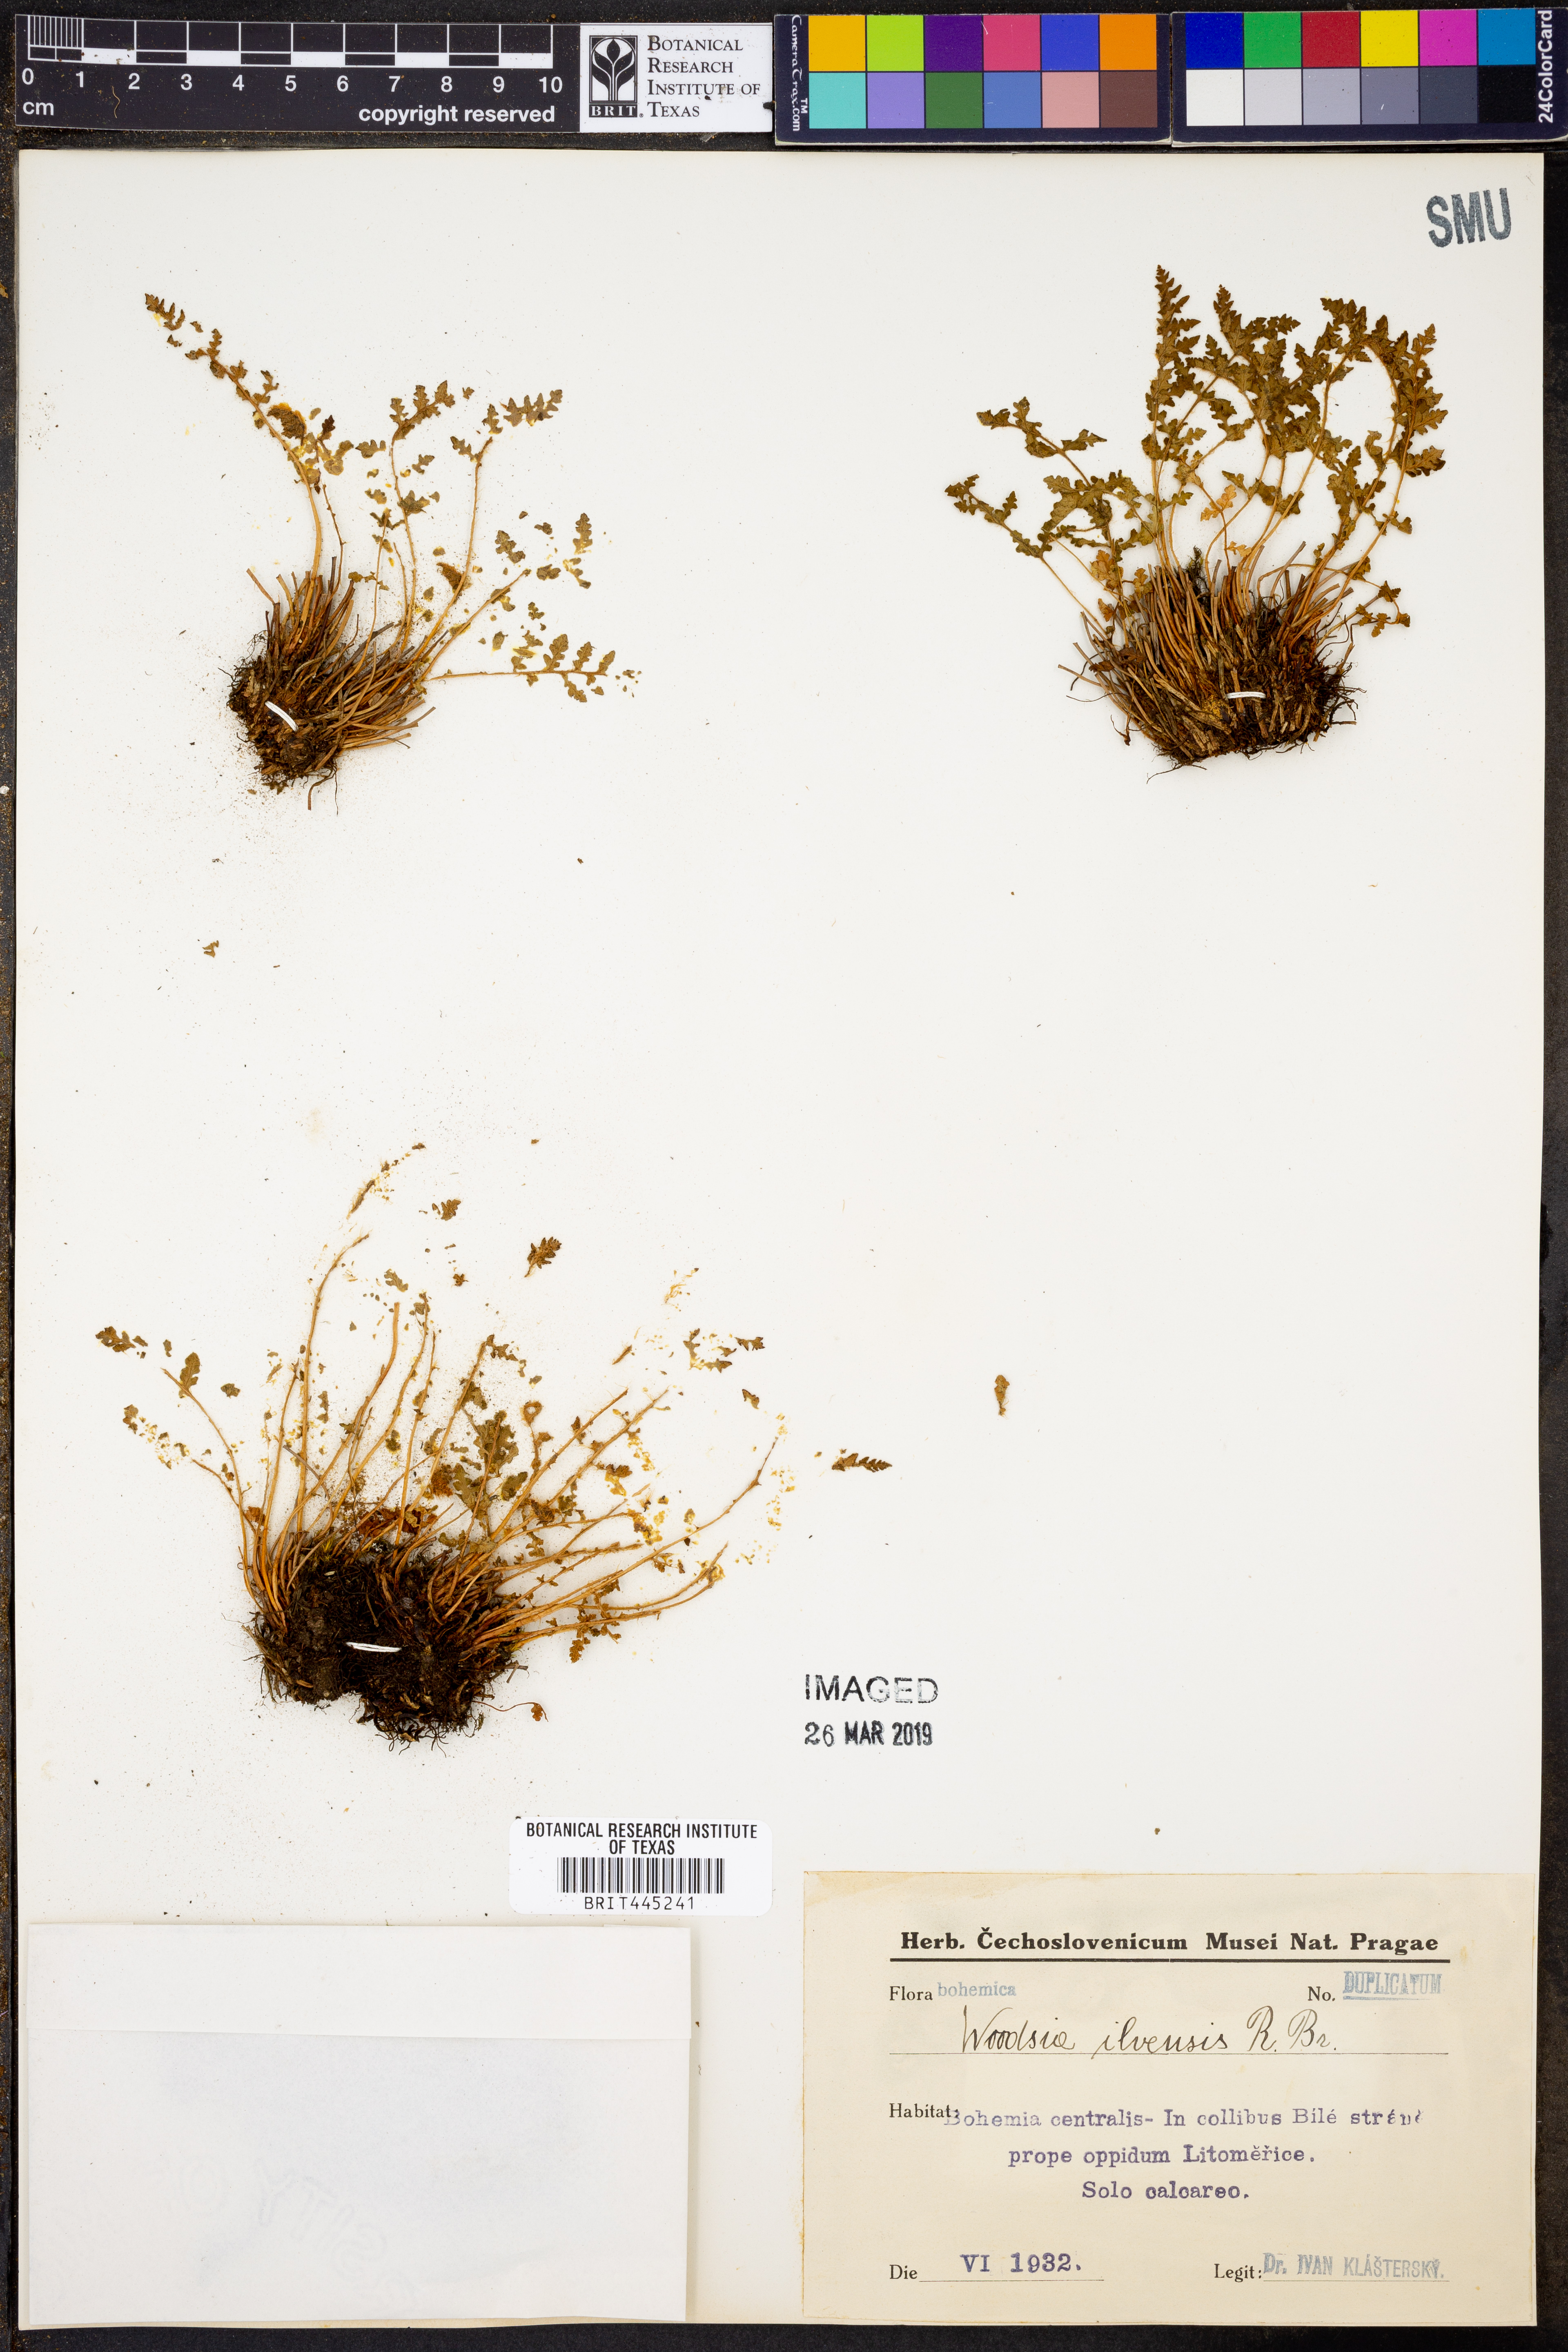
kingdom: Plantae
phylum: Tracheophyta
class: Polypodiopsida
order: Polypodiales
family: Woodsiaceae
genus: Woodsia
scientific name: Woodsia ilvensis
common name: Fragrant woodsia
